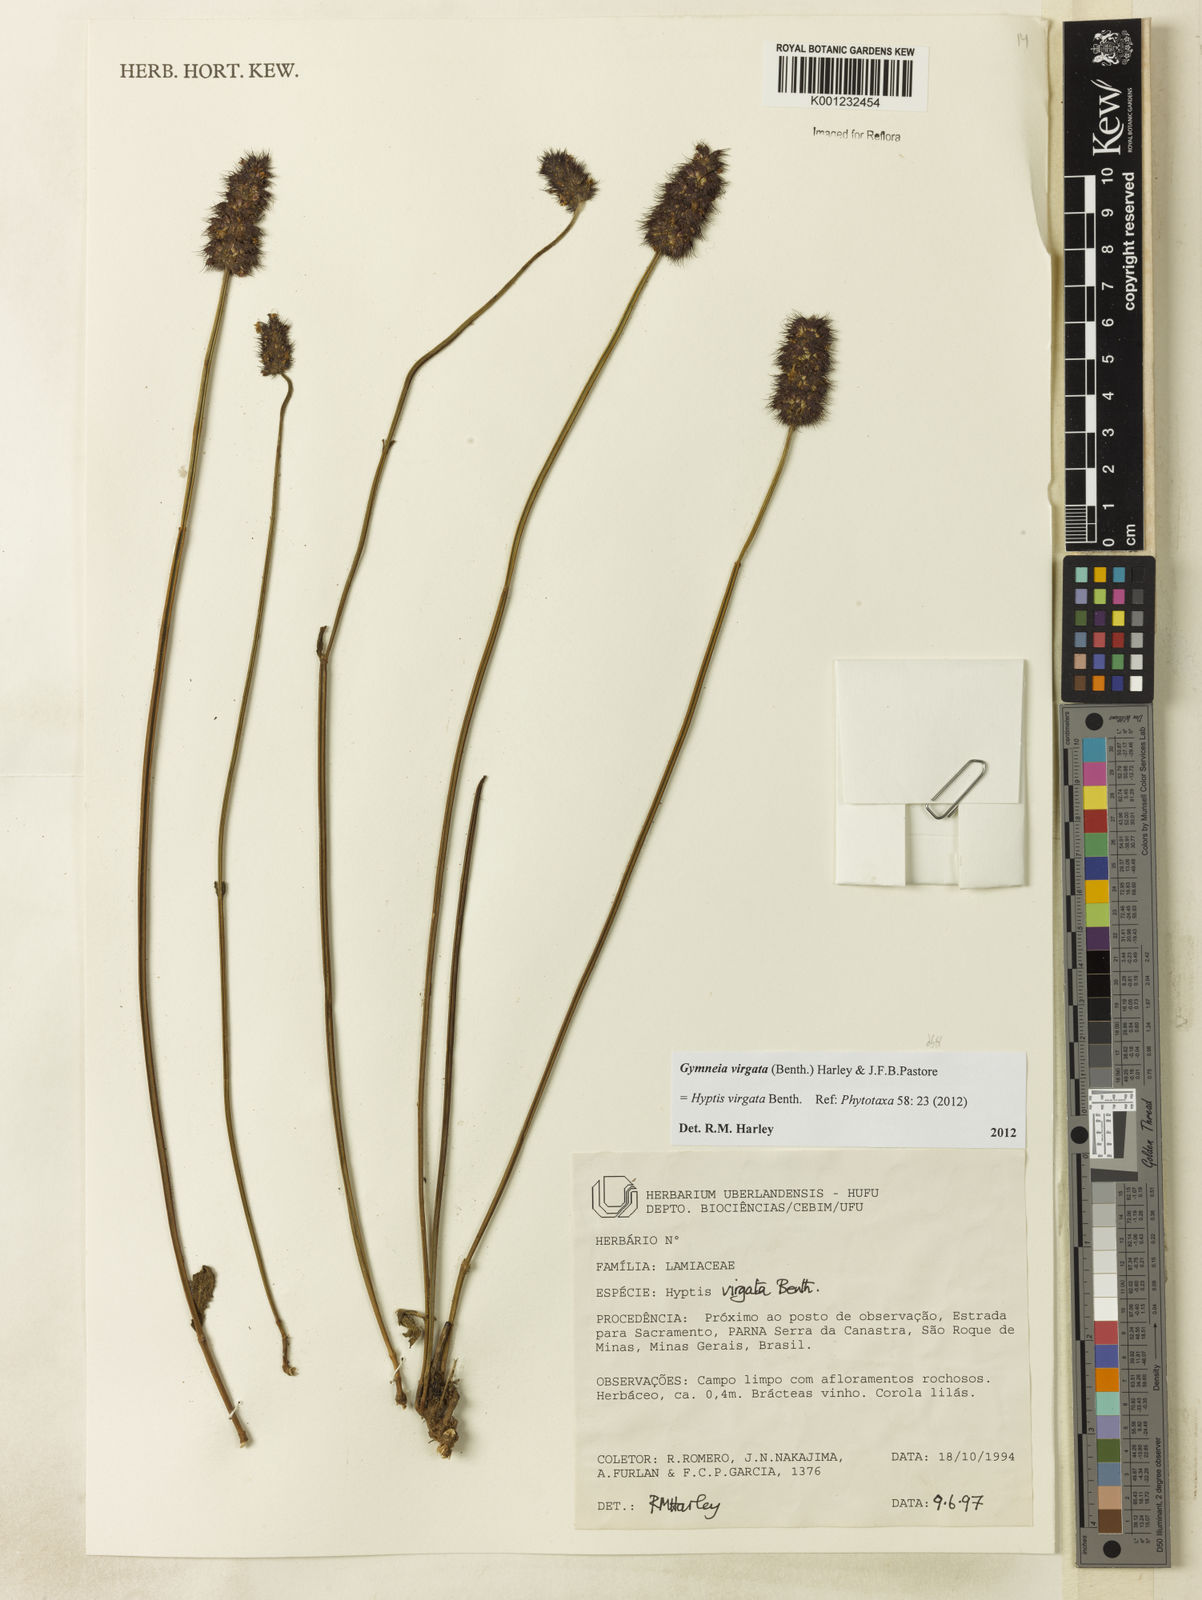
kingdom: Plantae
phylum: Tracheophyta
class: Magnoliopsida
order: Lamiales
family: Lamiaceae
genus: Gymneia
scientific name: Gymneia virgata
